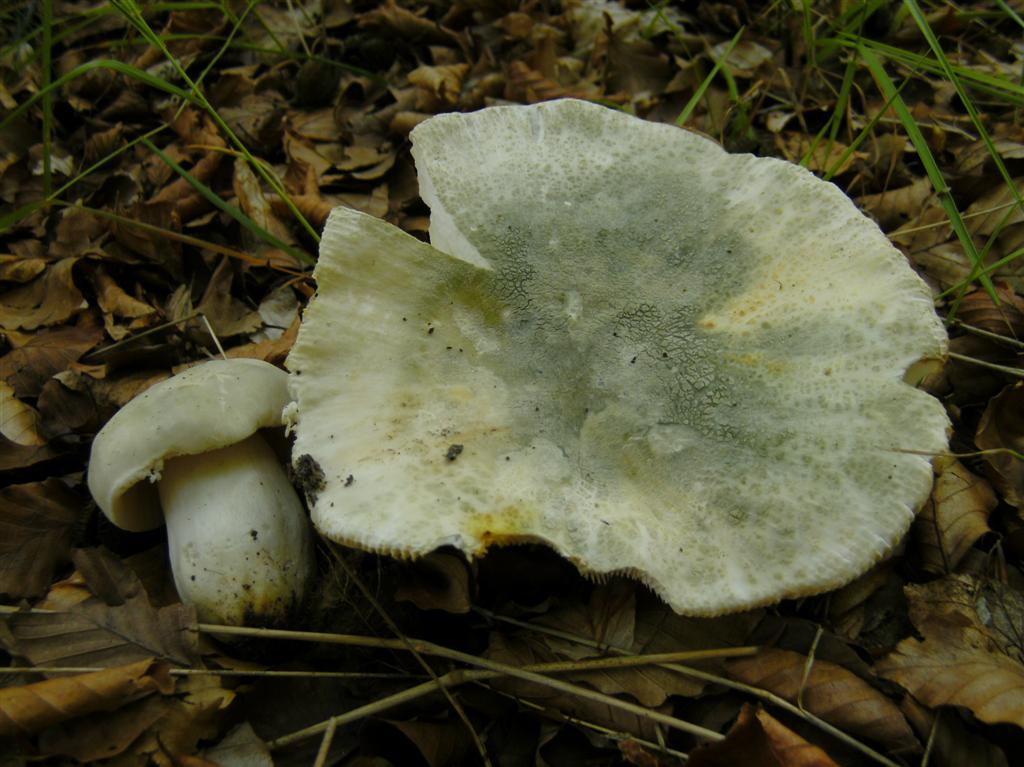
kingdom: Fungi
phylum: Basidiomycota
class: Agaricomycetes
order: Russulales
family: Russulaceae
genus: Russula
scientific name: Russula virescens
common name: spanskgrøn skørhat
